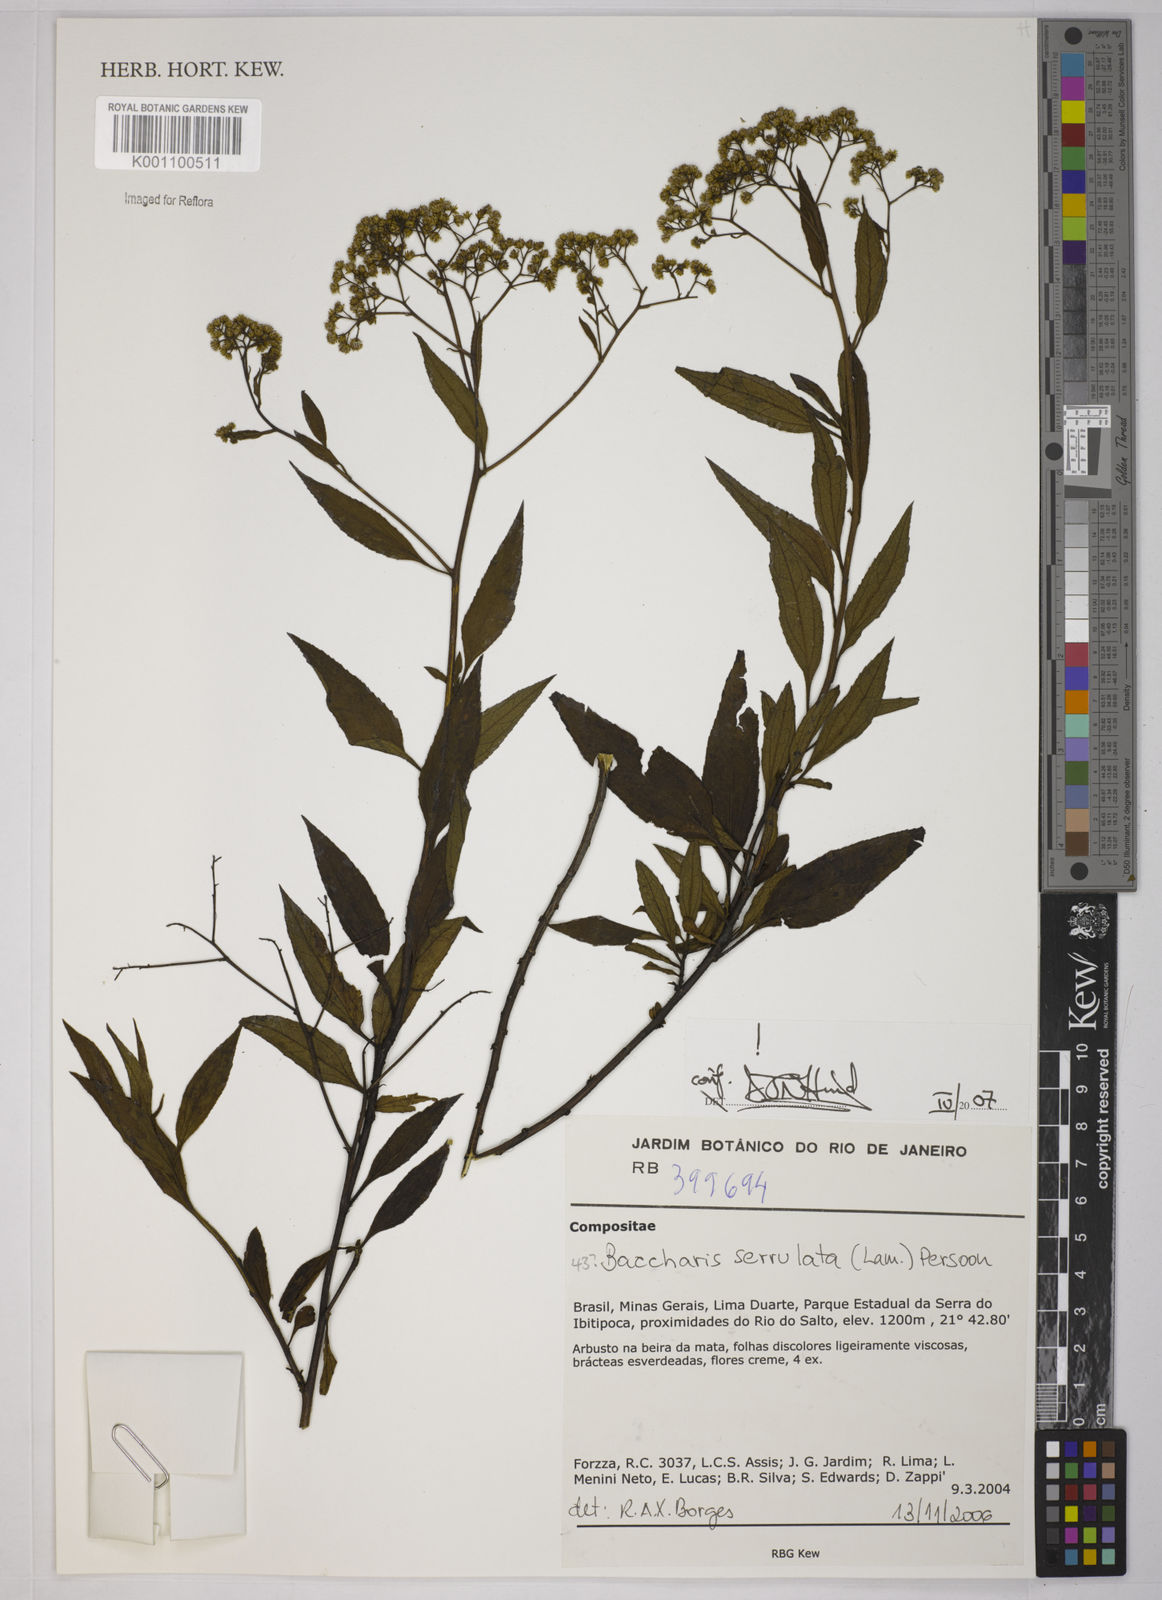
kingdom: Plantae
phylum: Tracheophyta
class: Magnoliopsida
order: Asterales
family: Asteraceae
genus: Baccharis
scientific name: Baccharis serrulata
